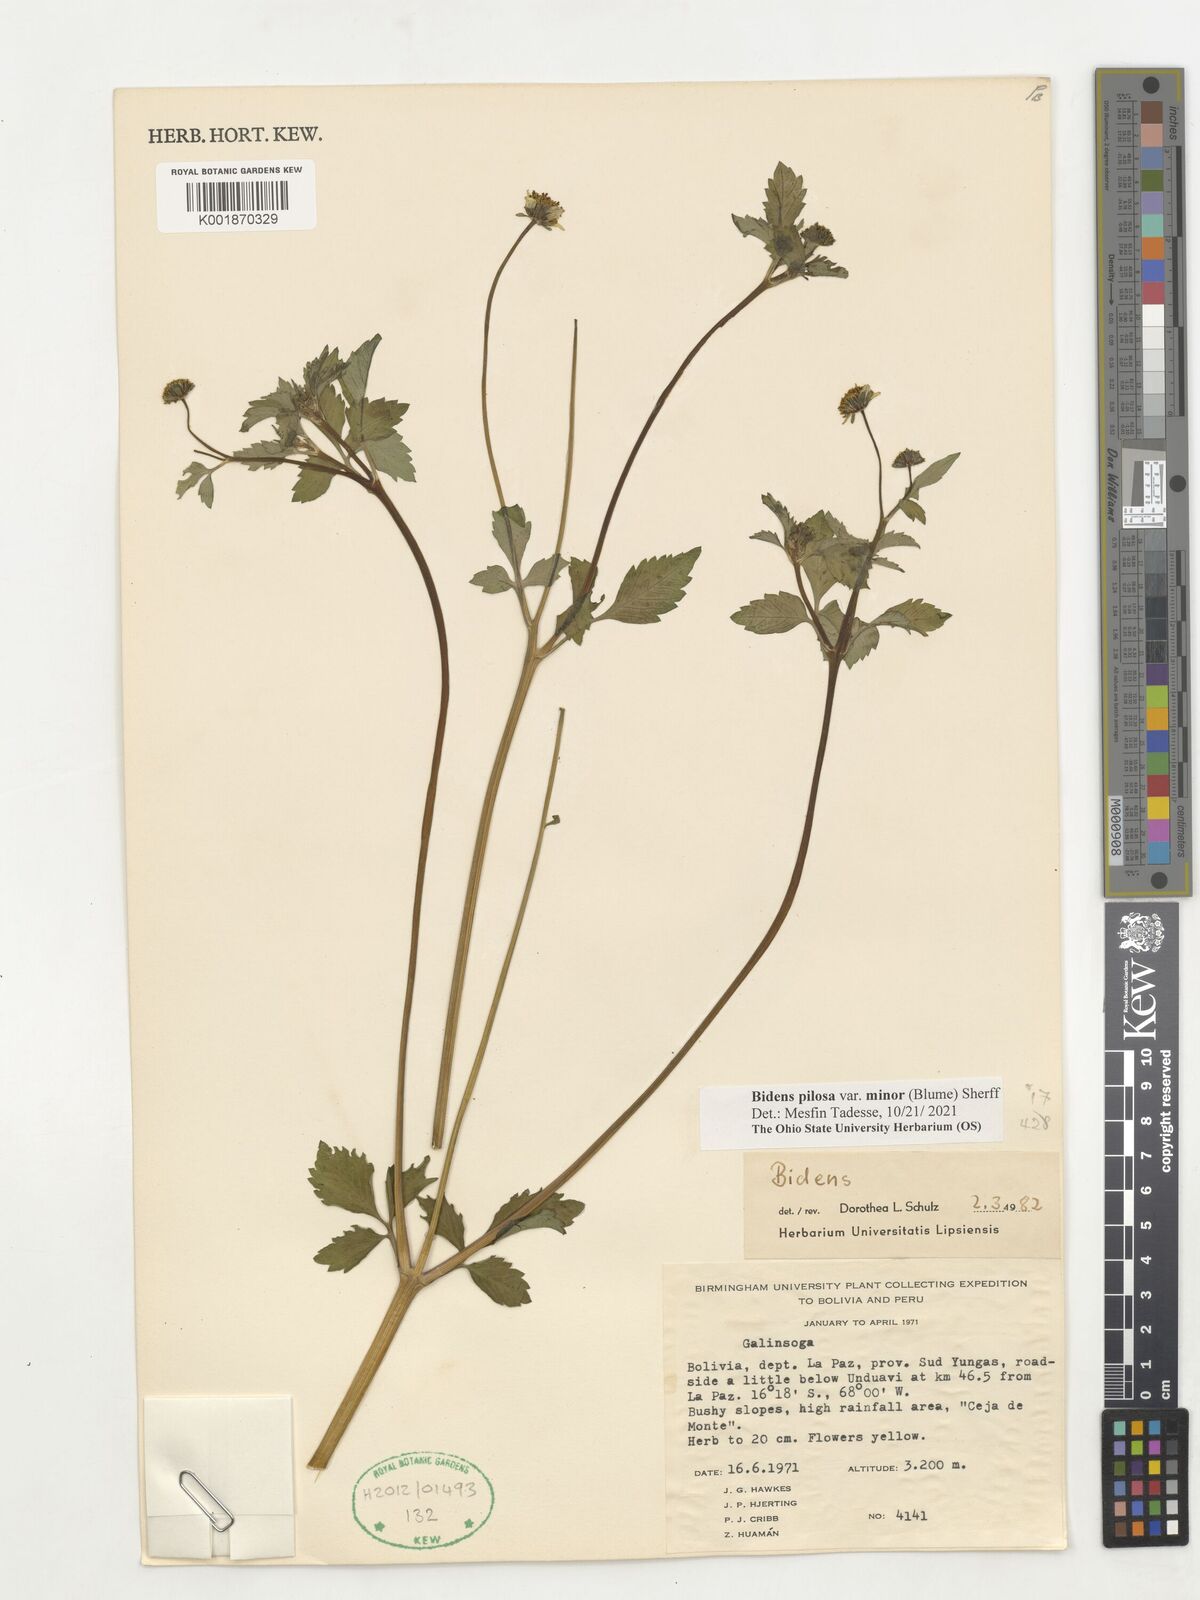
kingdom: Plantae
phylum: Tracheophyta
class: Magnoliopsida
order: Asterales
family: Asteraceae
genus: Bidens
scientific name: Bidens pilosa
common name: Black-jack
